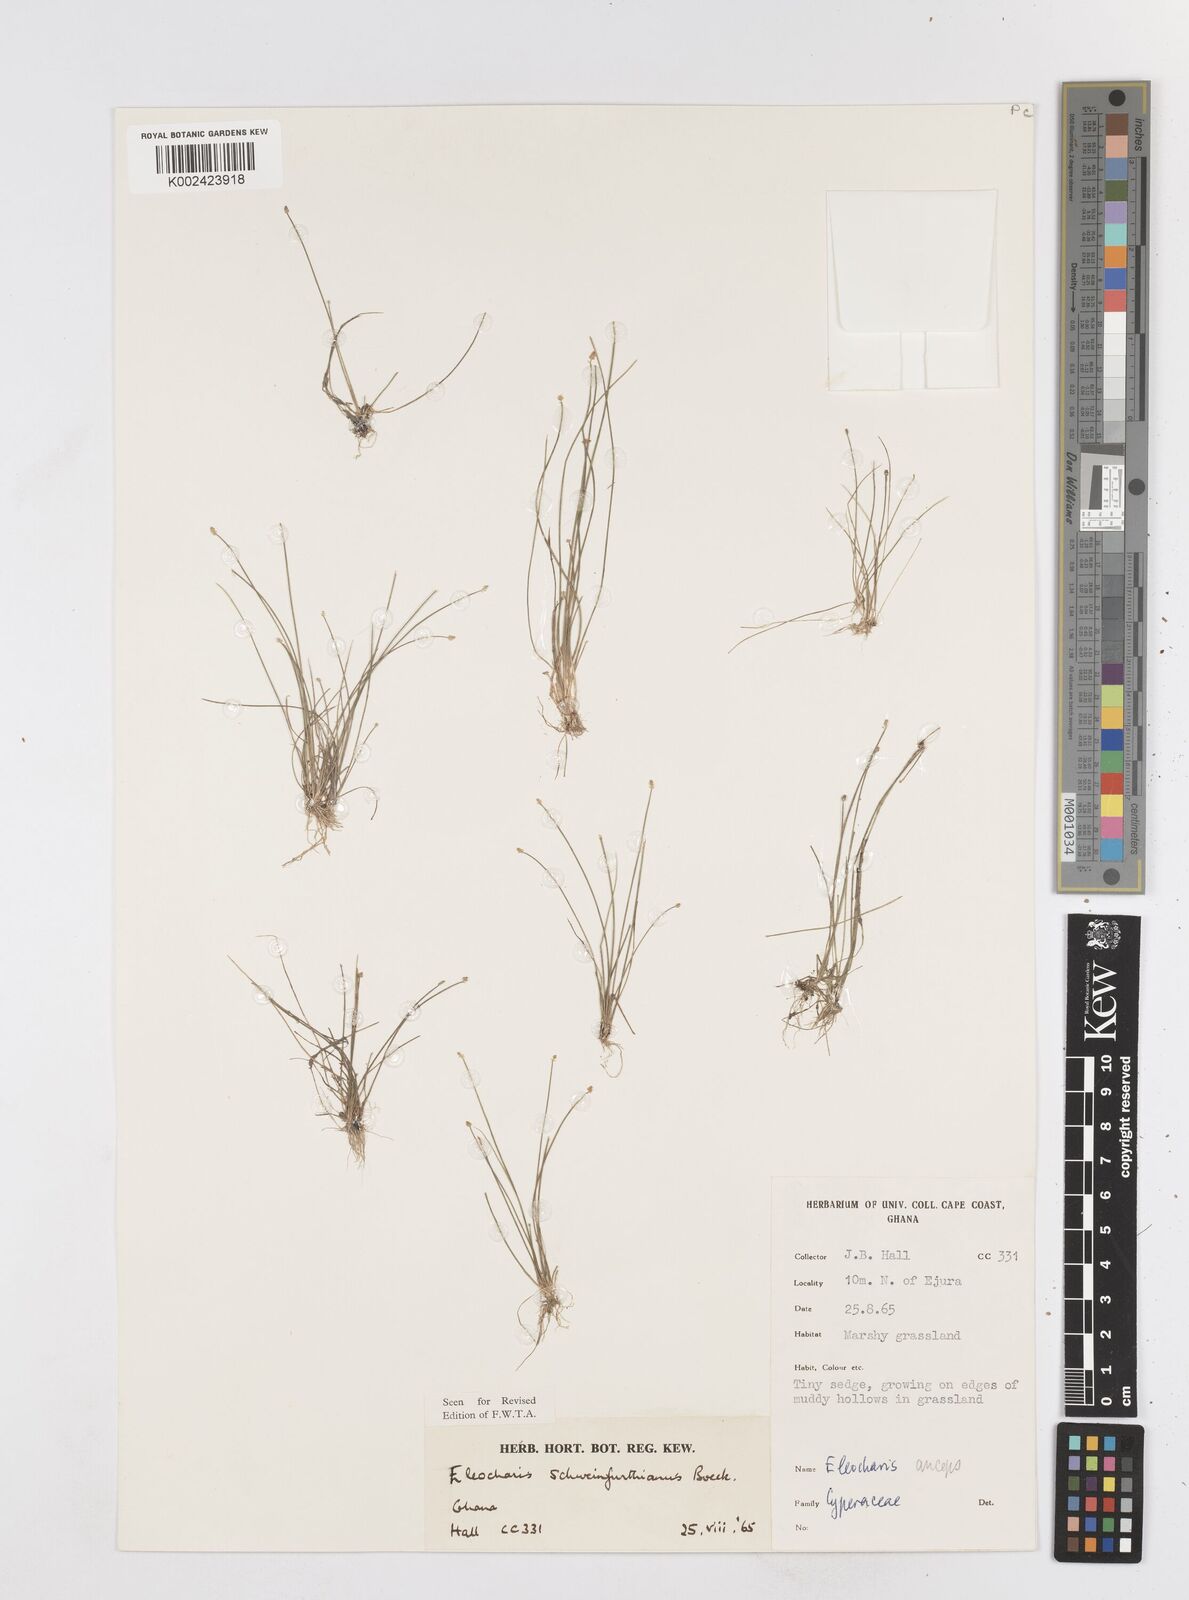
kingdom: Plantae
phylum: Tracheophyta
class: Liliopsida
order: Poales
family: Cyperaceae
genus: Eleocharis
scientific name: Eleocharis setifolia
